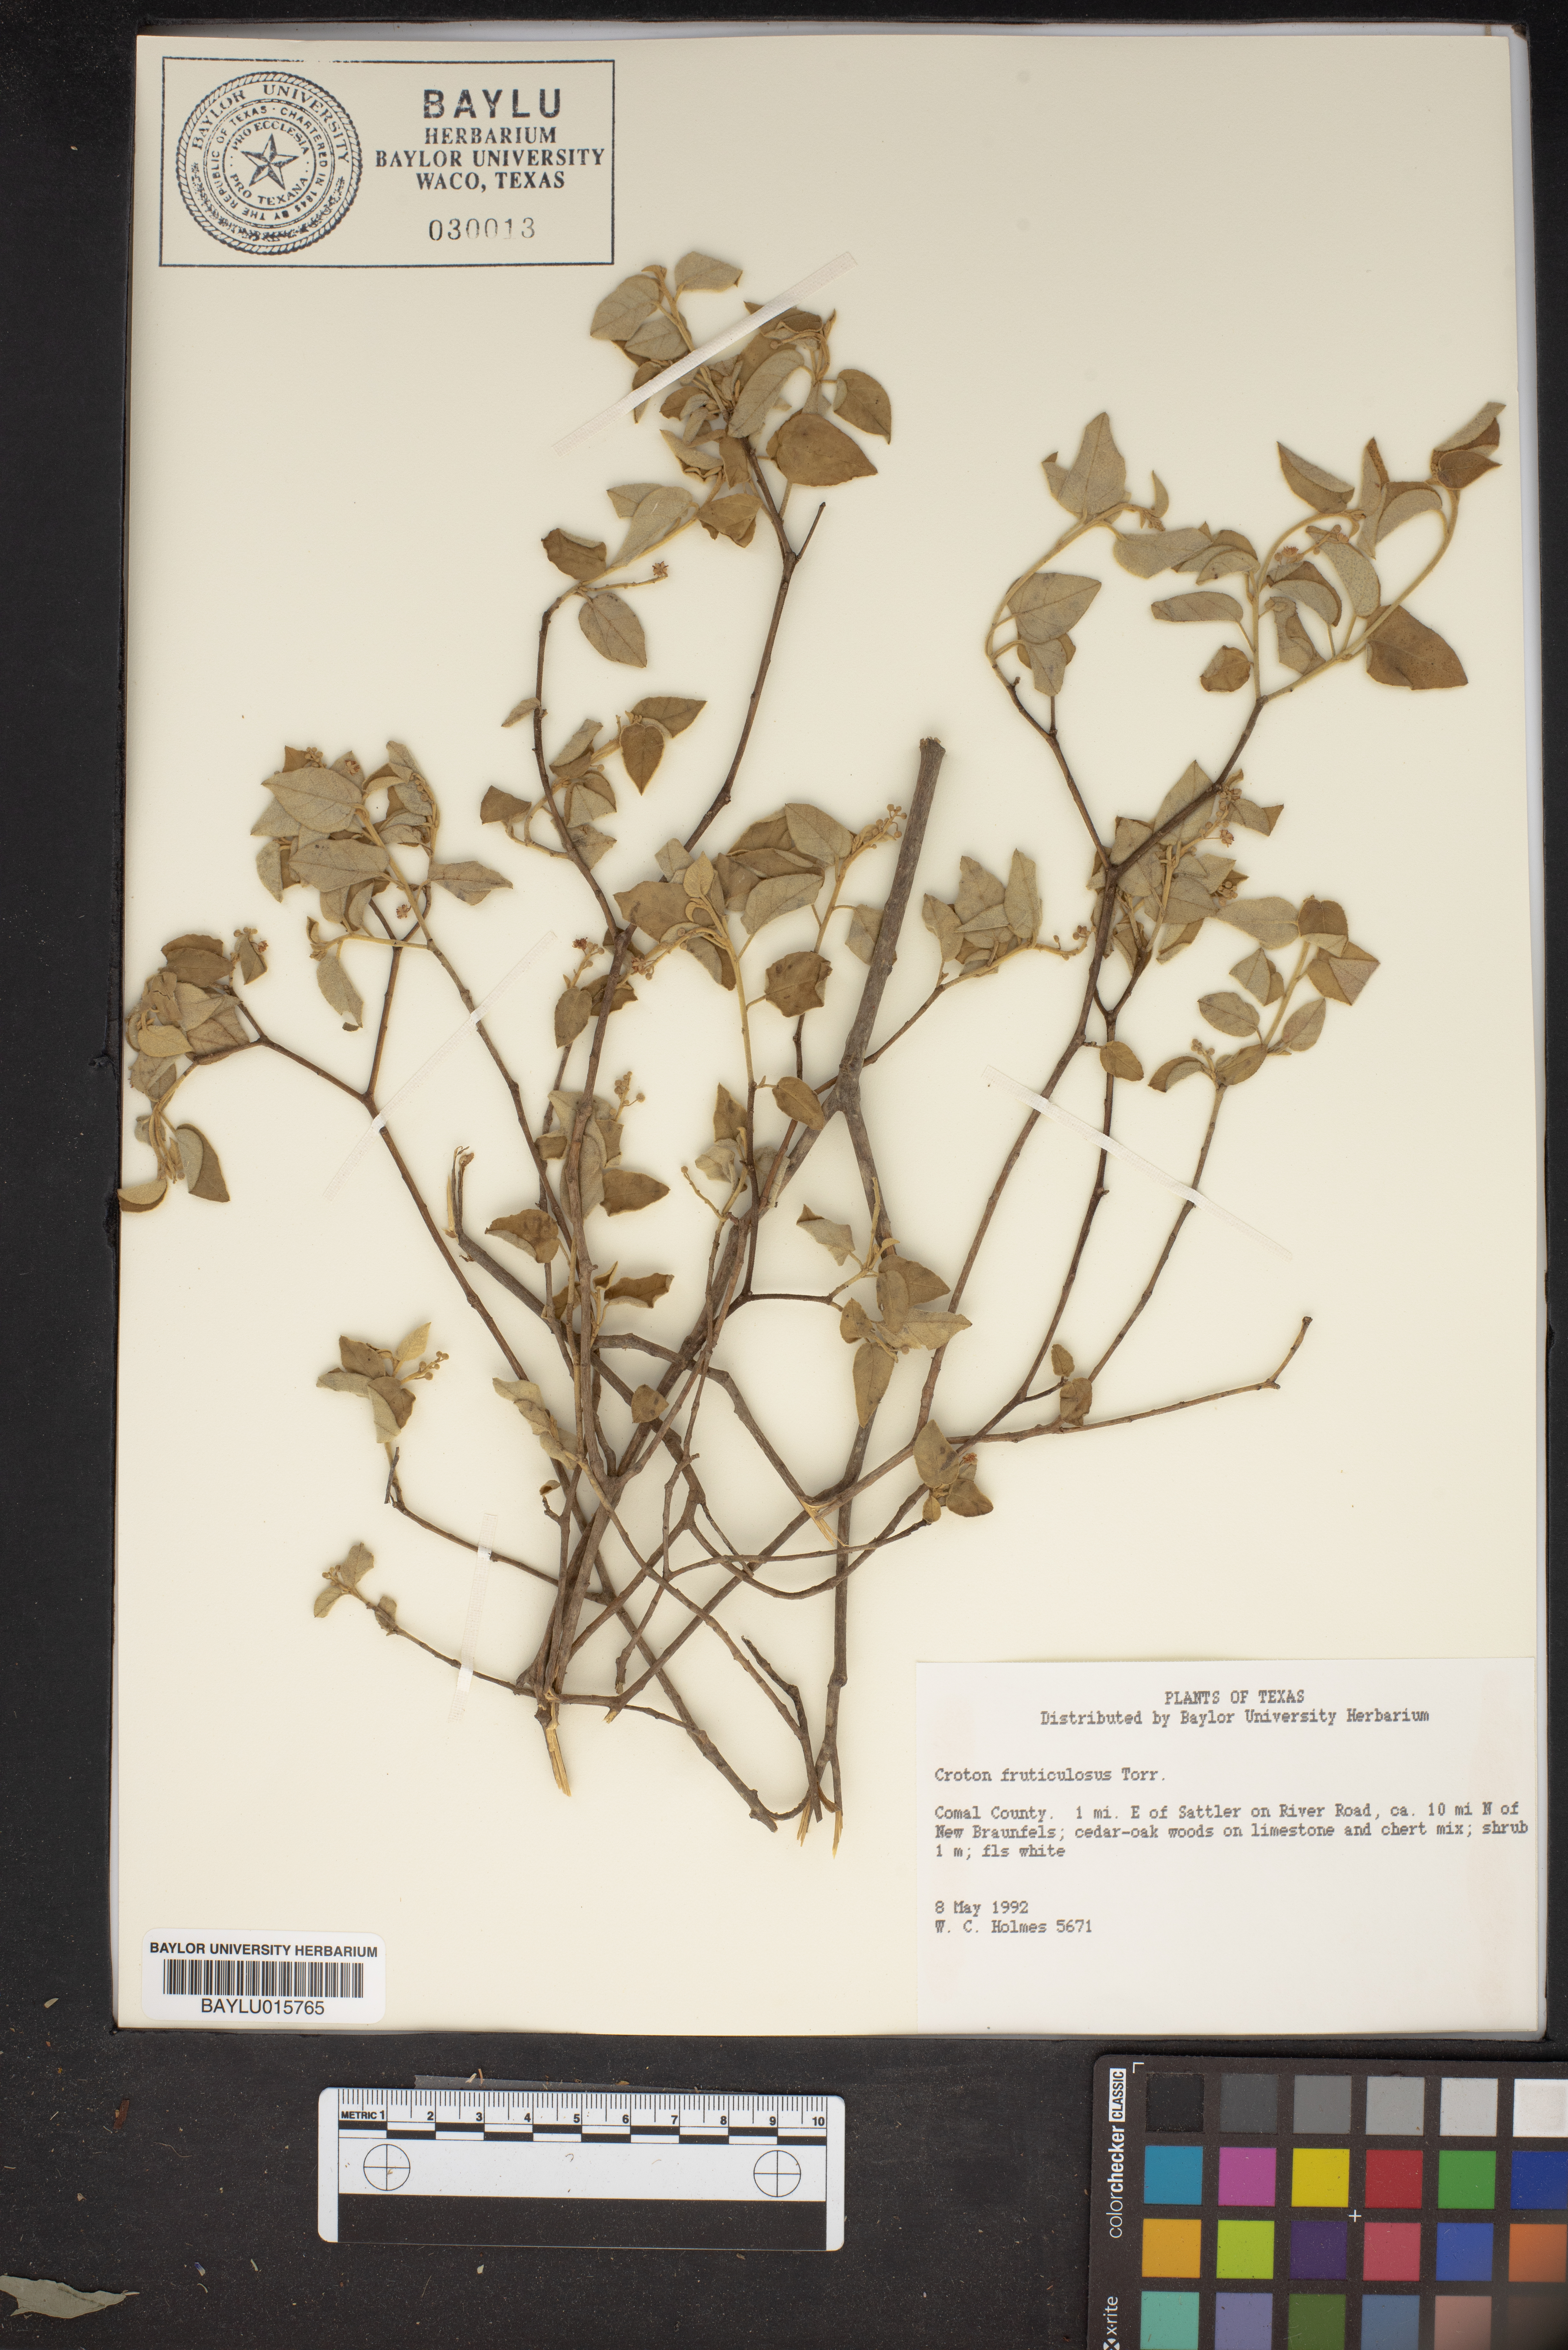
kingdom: Plantae
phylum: Tracheophyta
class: Magnoliopsida
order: Malpighiales
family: Euphorbiaceae
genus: Croton
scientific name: Croton fruticulosus
